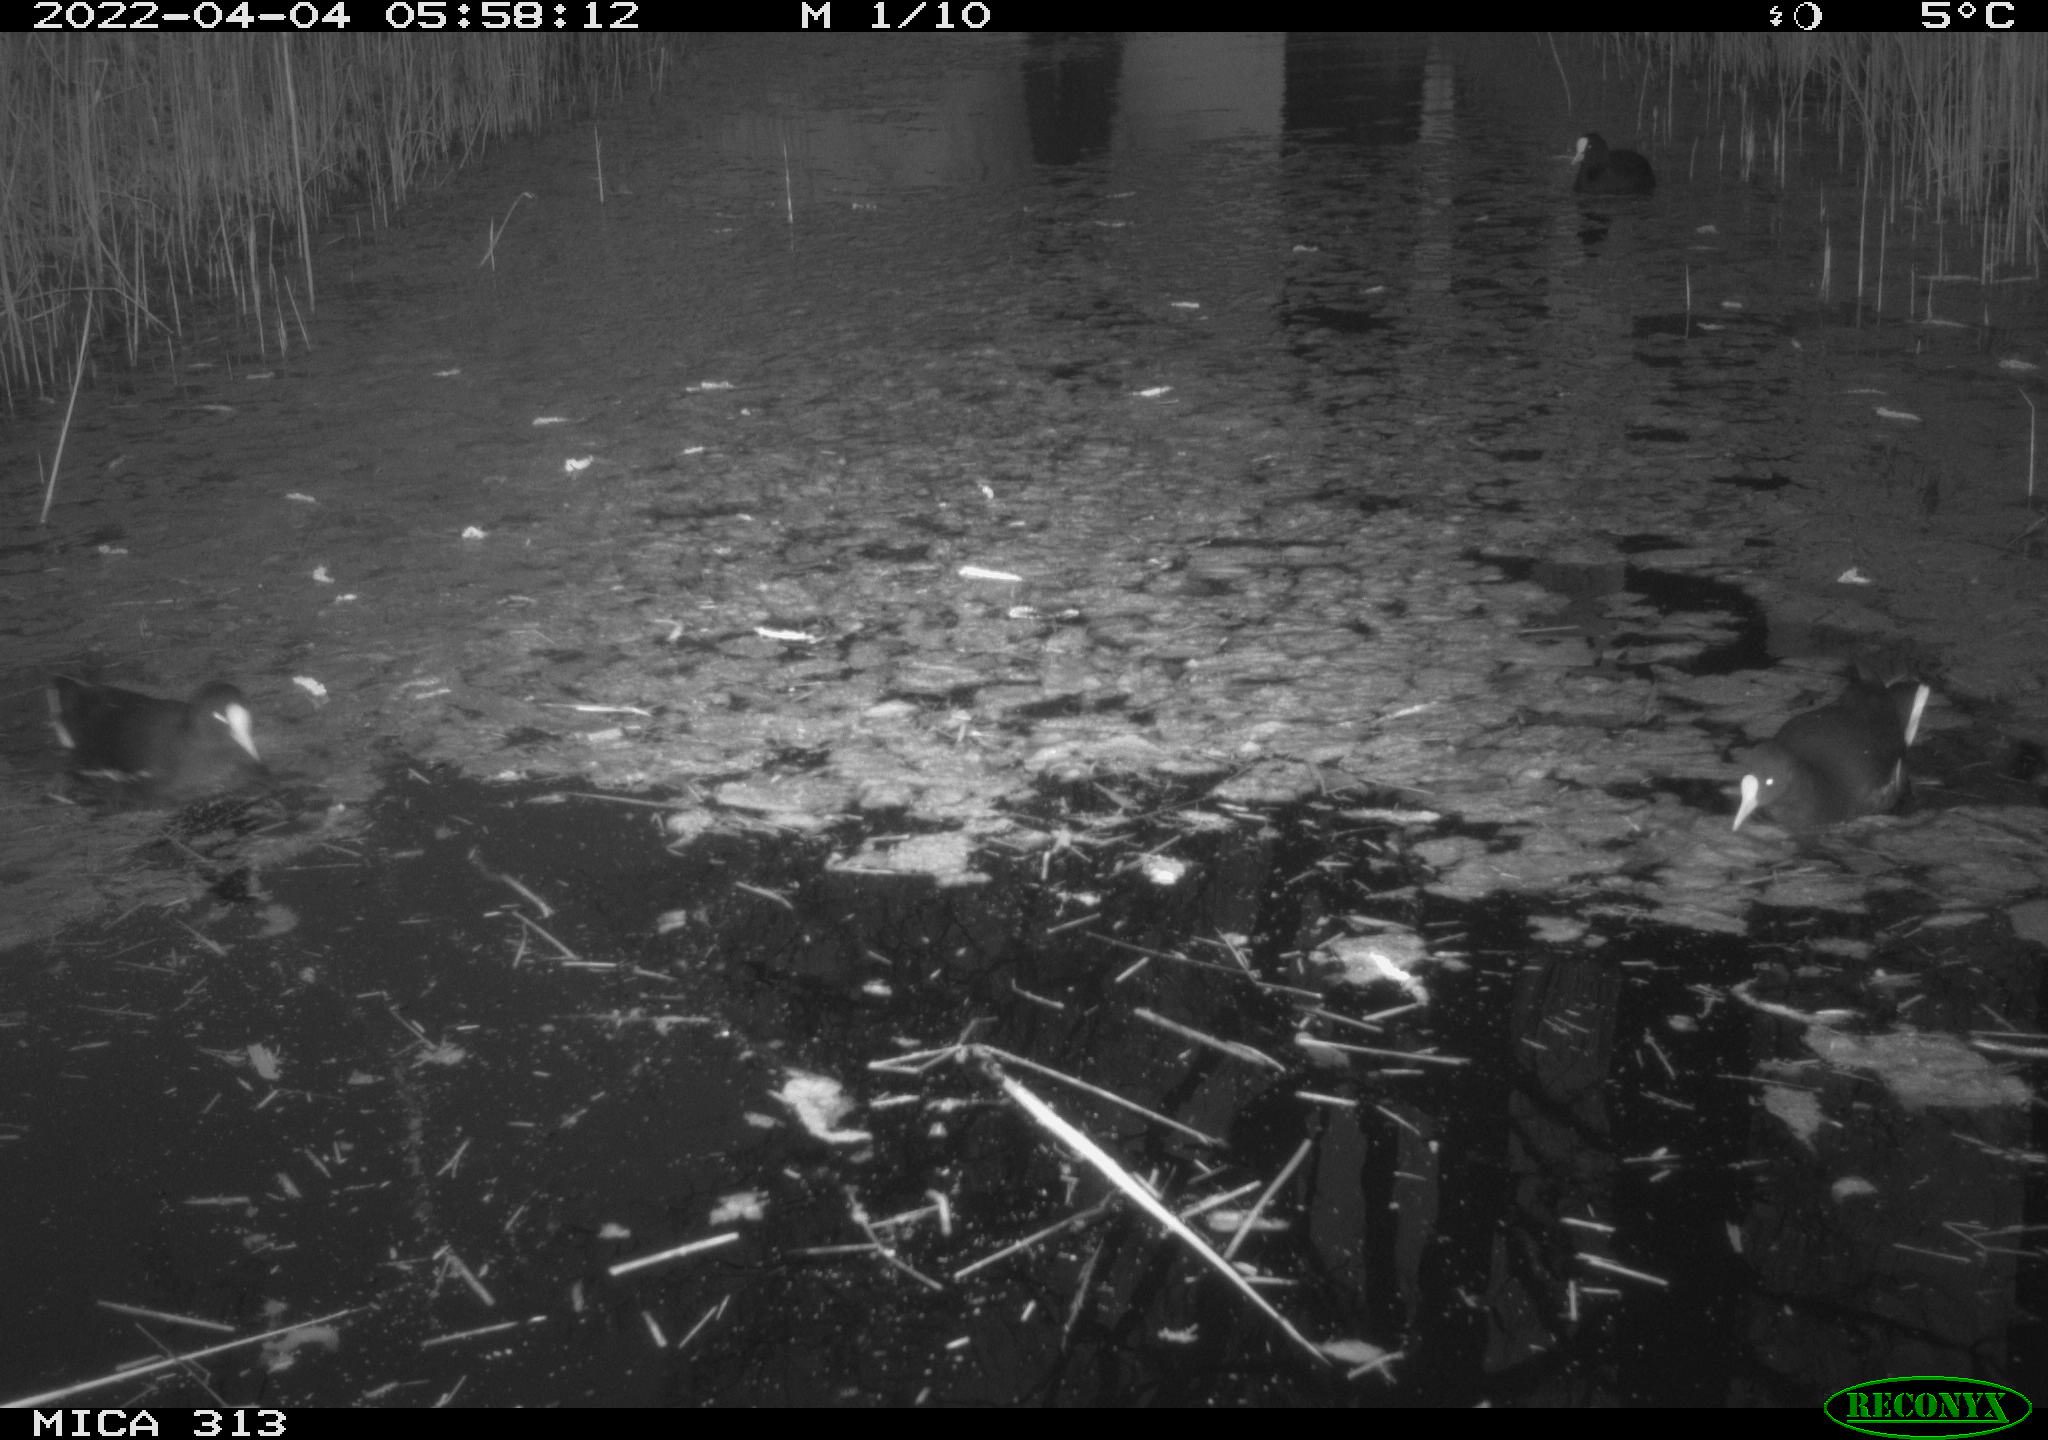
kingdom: Animalia
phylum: Chordata
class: Aves
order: Gruiformes
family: Rallidae
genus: Fulica
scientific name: Fulica atra
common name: Eurasian coot
